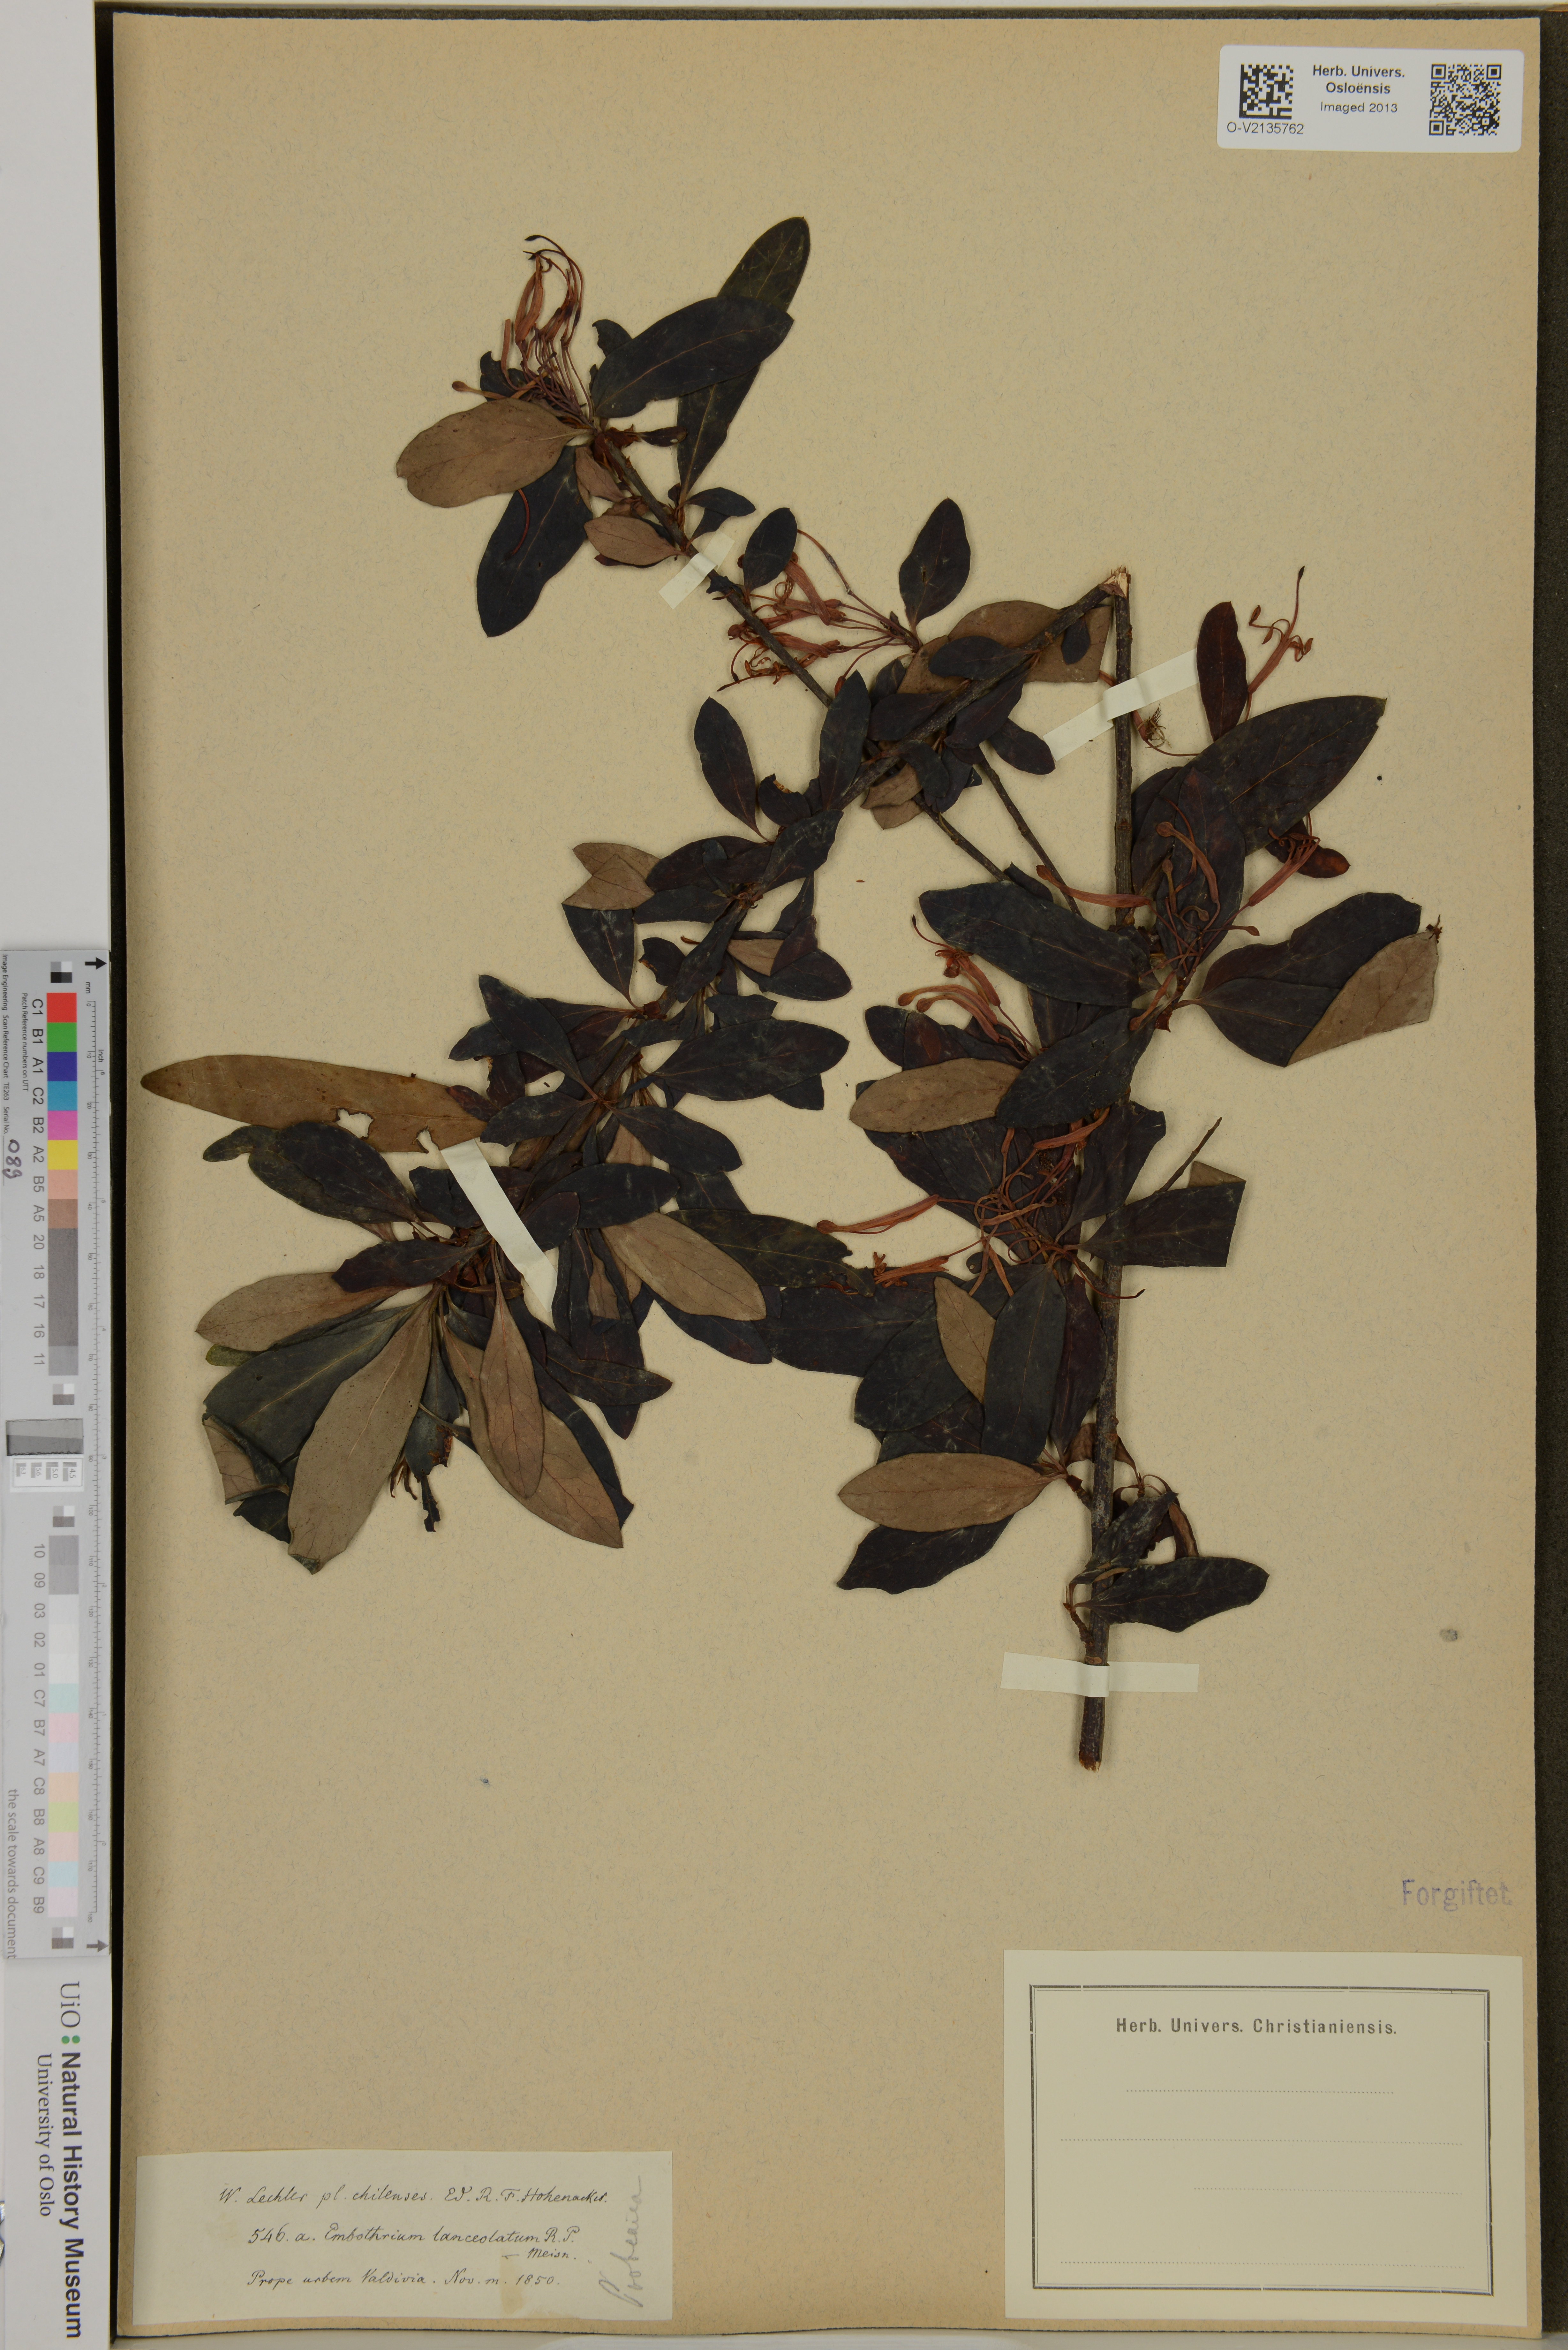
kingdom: Plantae
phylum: Tracheophyta
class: Magnoliopsida
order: Proteales
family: Proteaceae
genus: Embothrium
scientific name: Embothrium coccineum
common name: Chilean firebush
